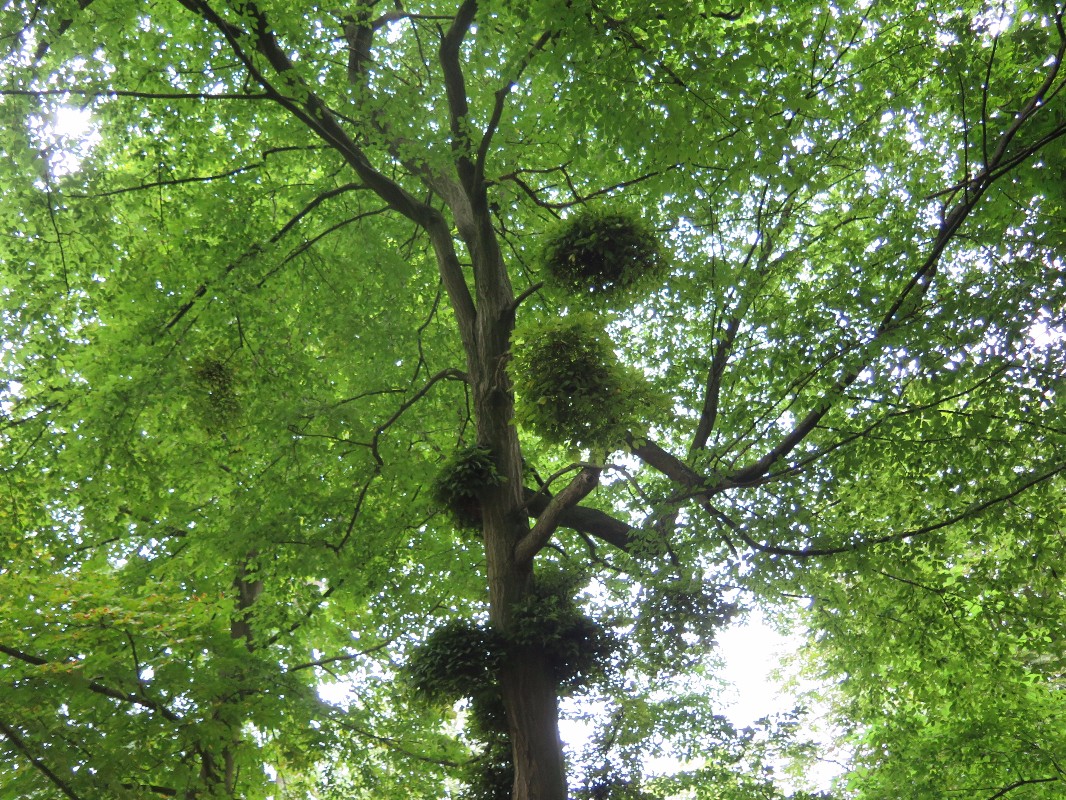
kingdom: Fungi
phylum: Ascomycota
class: Taphrinomycetes
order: Taphrinales
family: Taphrinaceae
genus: Taphrina
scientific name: Taphrina carpini
